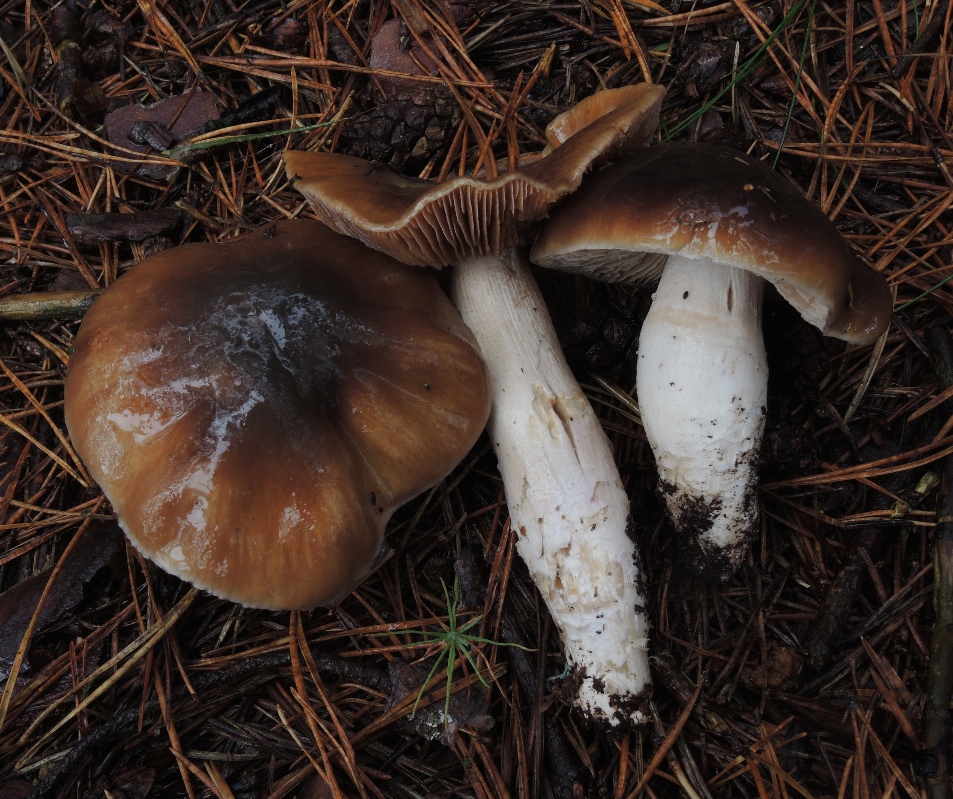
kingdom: Fungi
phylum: Basidiomycota
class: Agaricomycetes
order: Agaricales
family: Cortinariaceae
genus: Cortinarius
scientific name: Cortinarius mucifluus
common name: rynket slørhat
